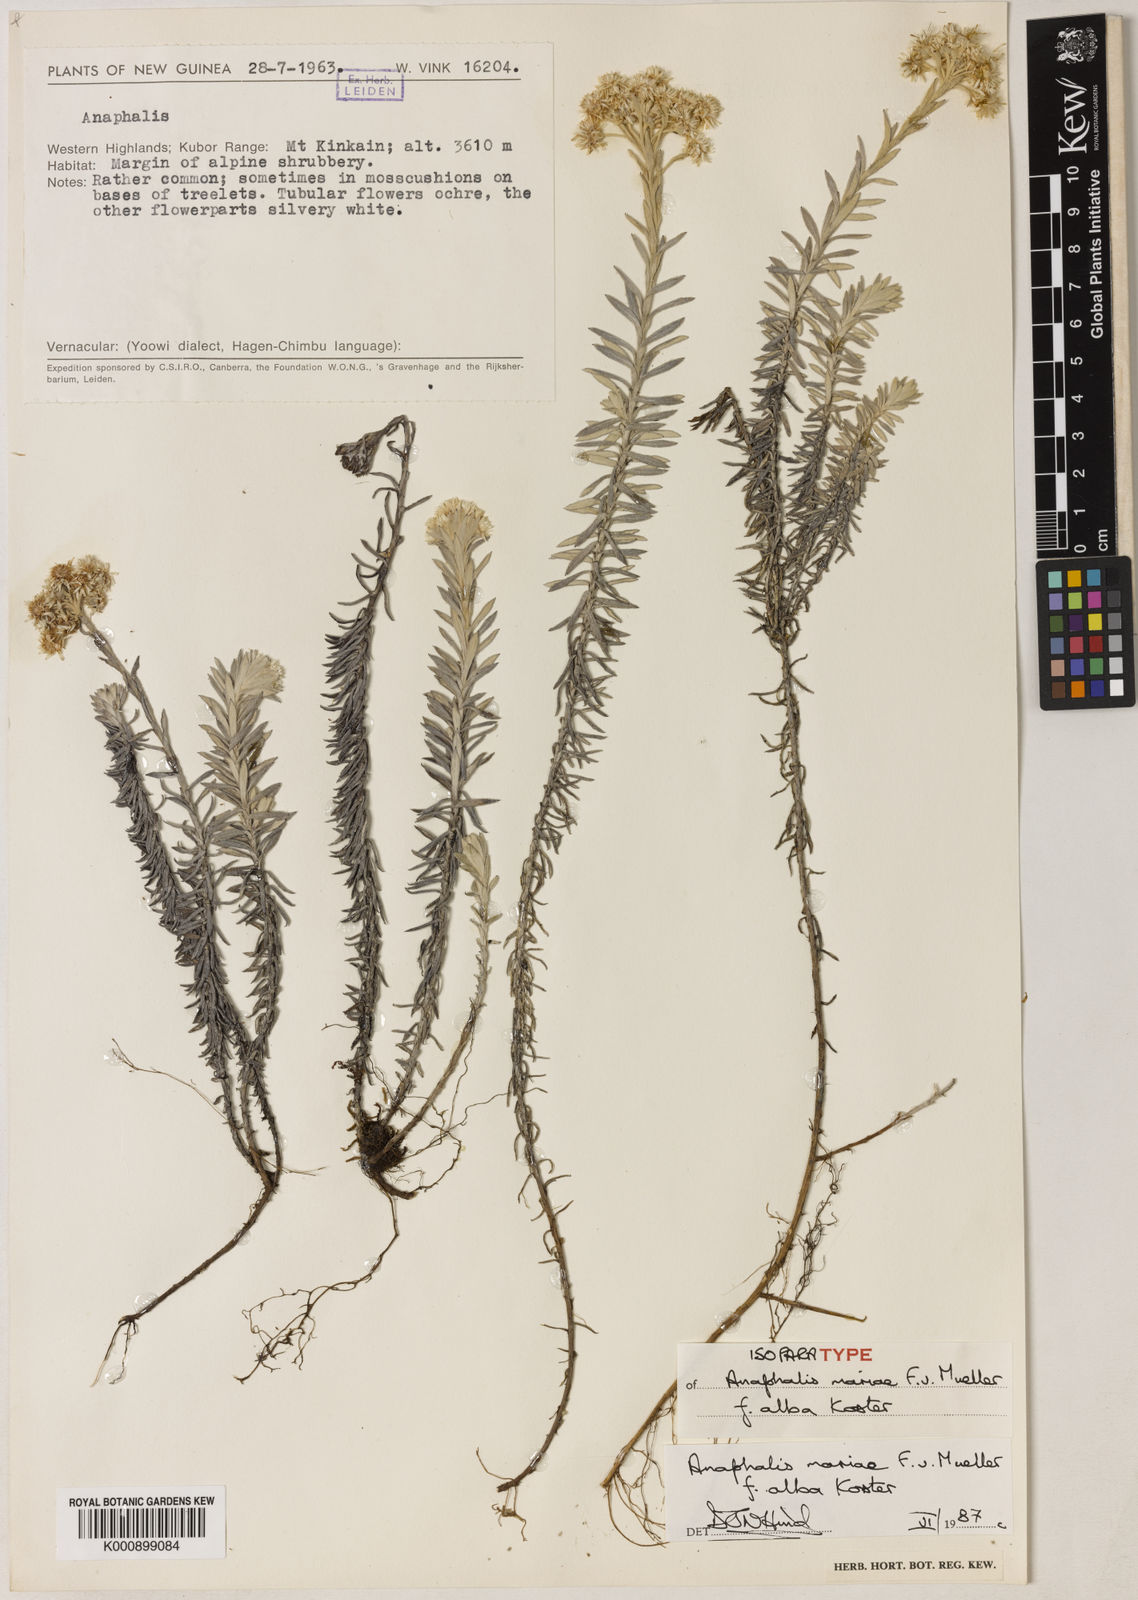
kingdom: Plantae
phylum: Tracheophyta
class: Magnoliopsida
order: Asterales
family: Asteraceae
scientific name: Asteraceae
